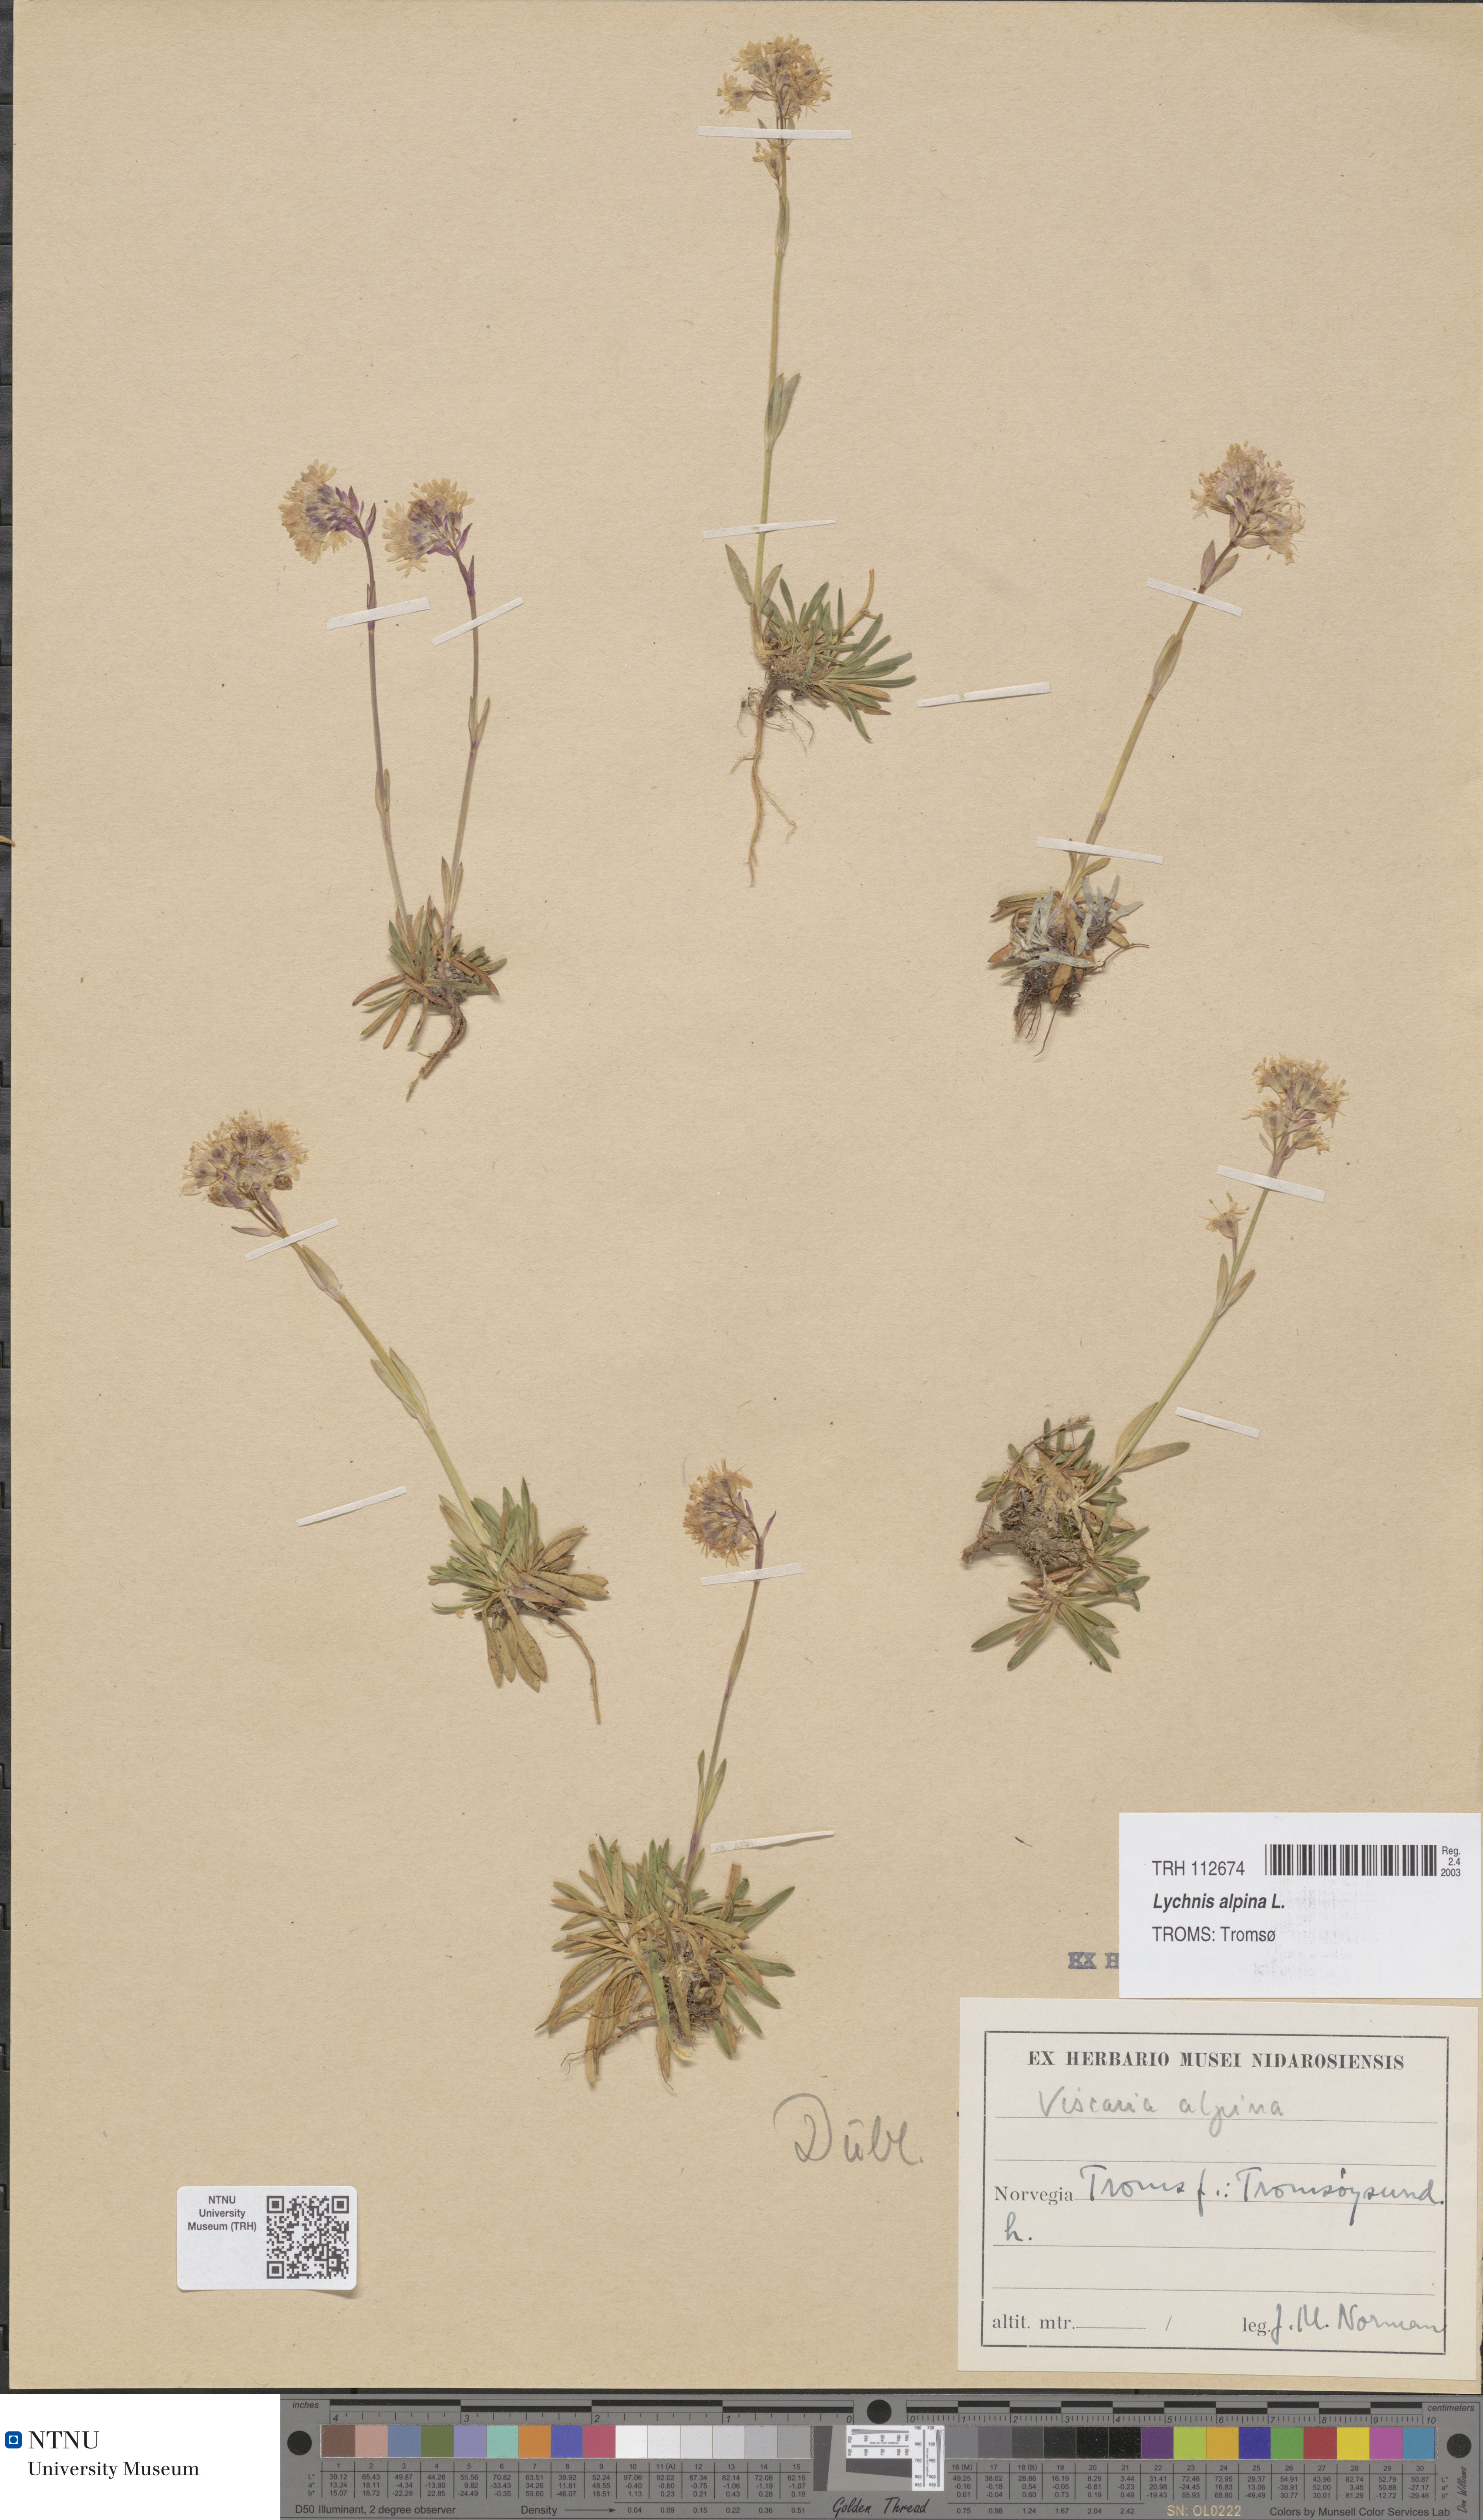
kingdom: Plantae
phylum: Tracheophyta
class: Magnoliopsida
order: Caryophyllales
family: Caryophyllaceae
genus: Viscaria
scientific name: Viscaria alpina
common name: Alpine campion
